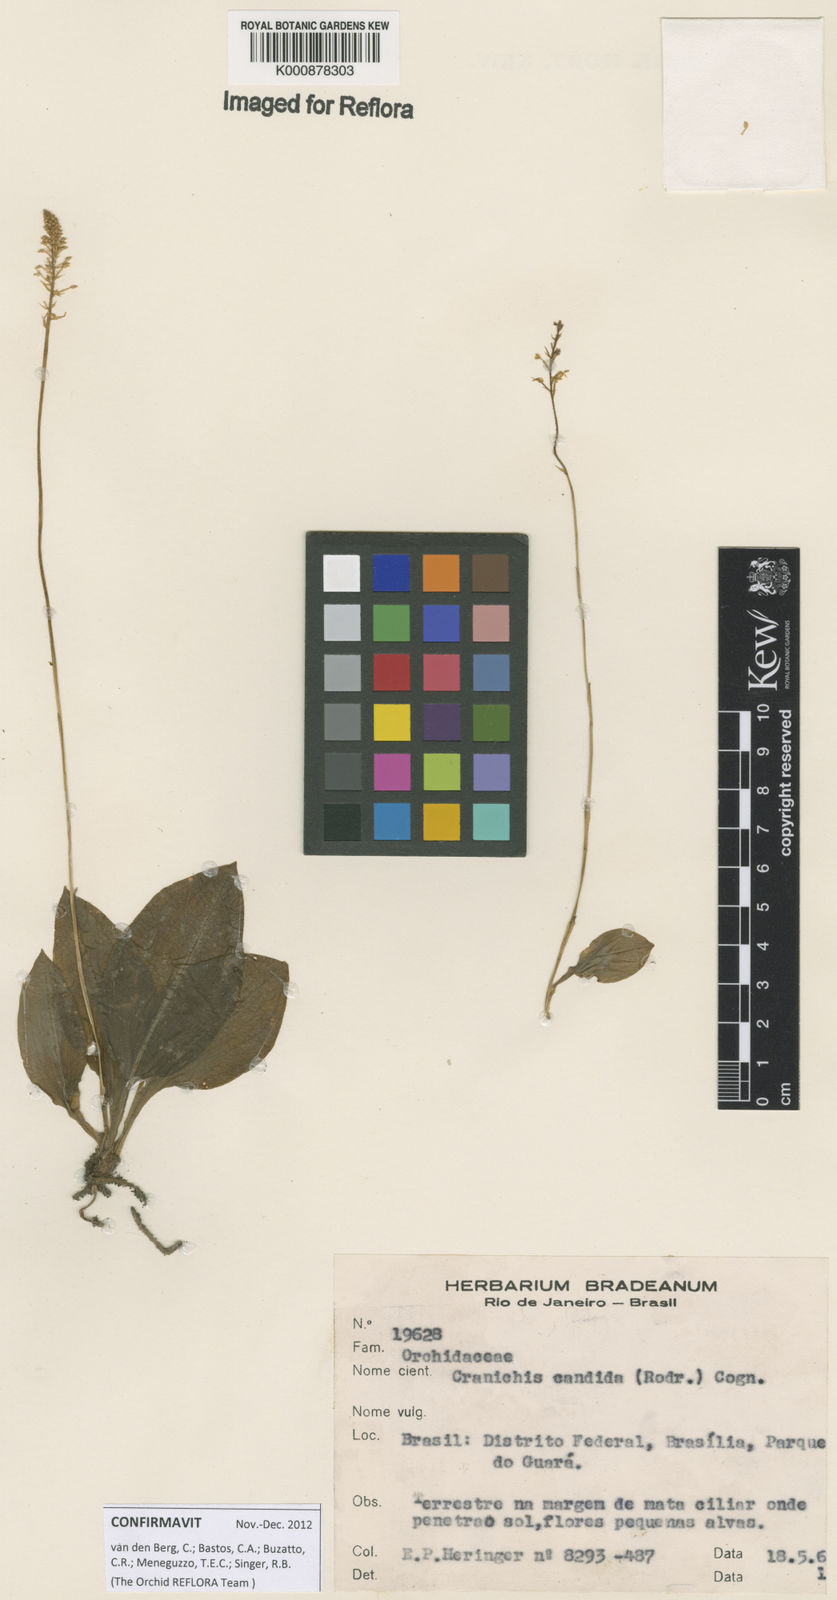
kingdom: Plantae
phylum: Tracheophyta
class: Liliopsida
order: Asparagales
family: Orchidaceae
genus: Cranichis
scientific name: Cranichis candida
